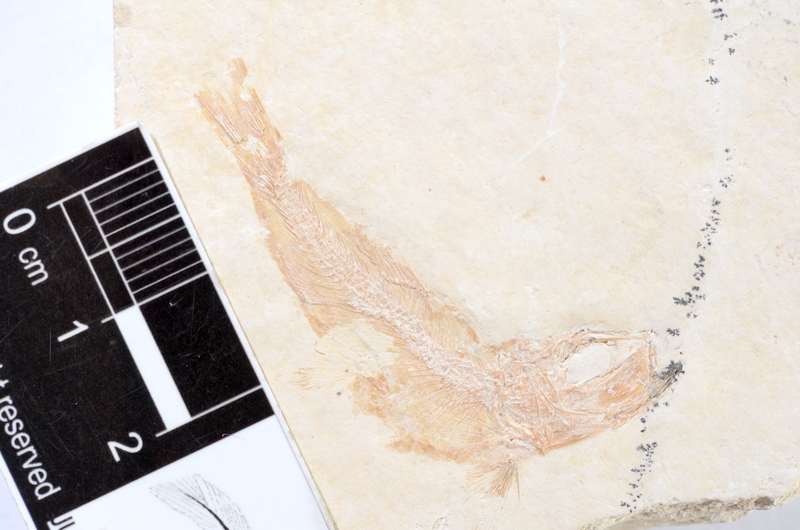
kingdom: Animalia
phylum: Chordata
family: Ascalaboidae
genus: Tharsis
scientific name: Tharsis dubius
